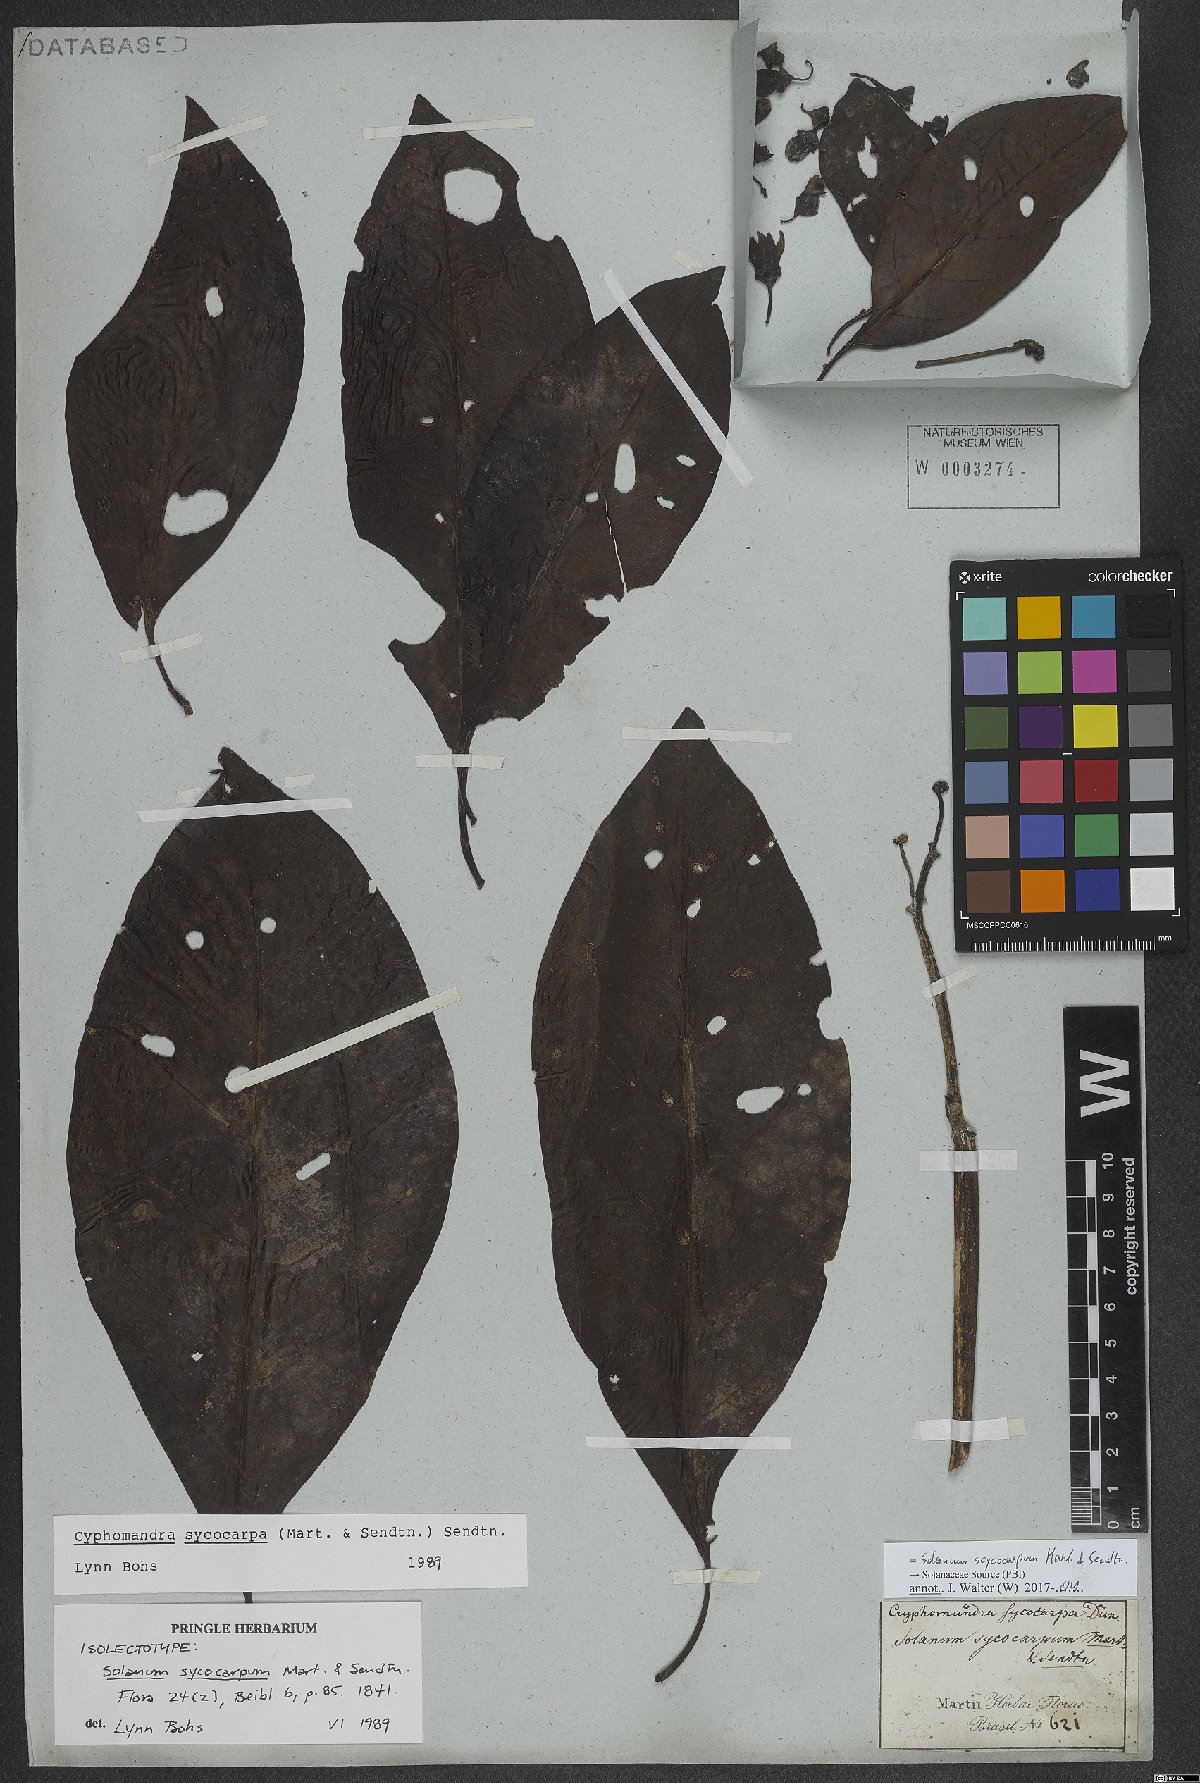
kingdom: Plantae
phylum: Tracheophyta
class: Magnoliopsida
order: Solanales
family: Solanaceae
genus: Solanum
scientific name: Solanum sycocarpum
